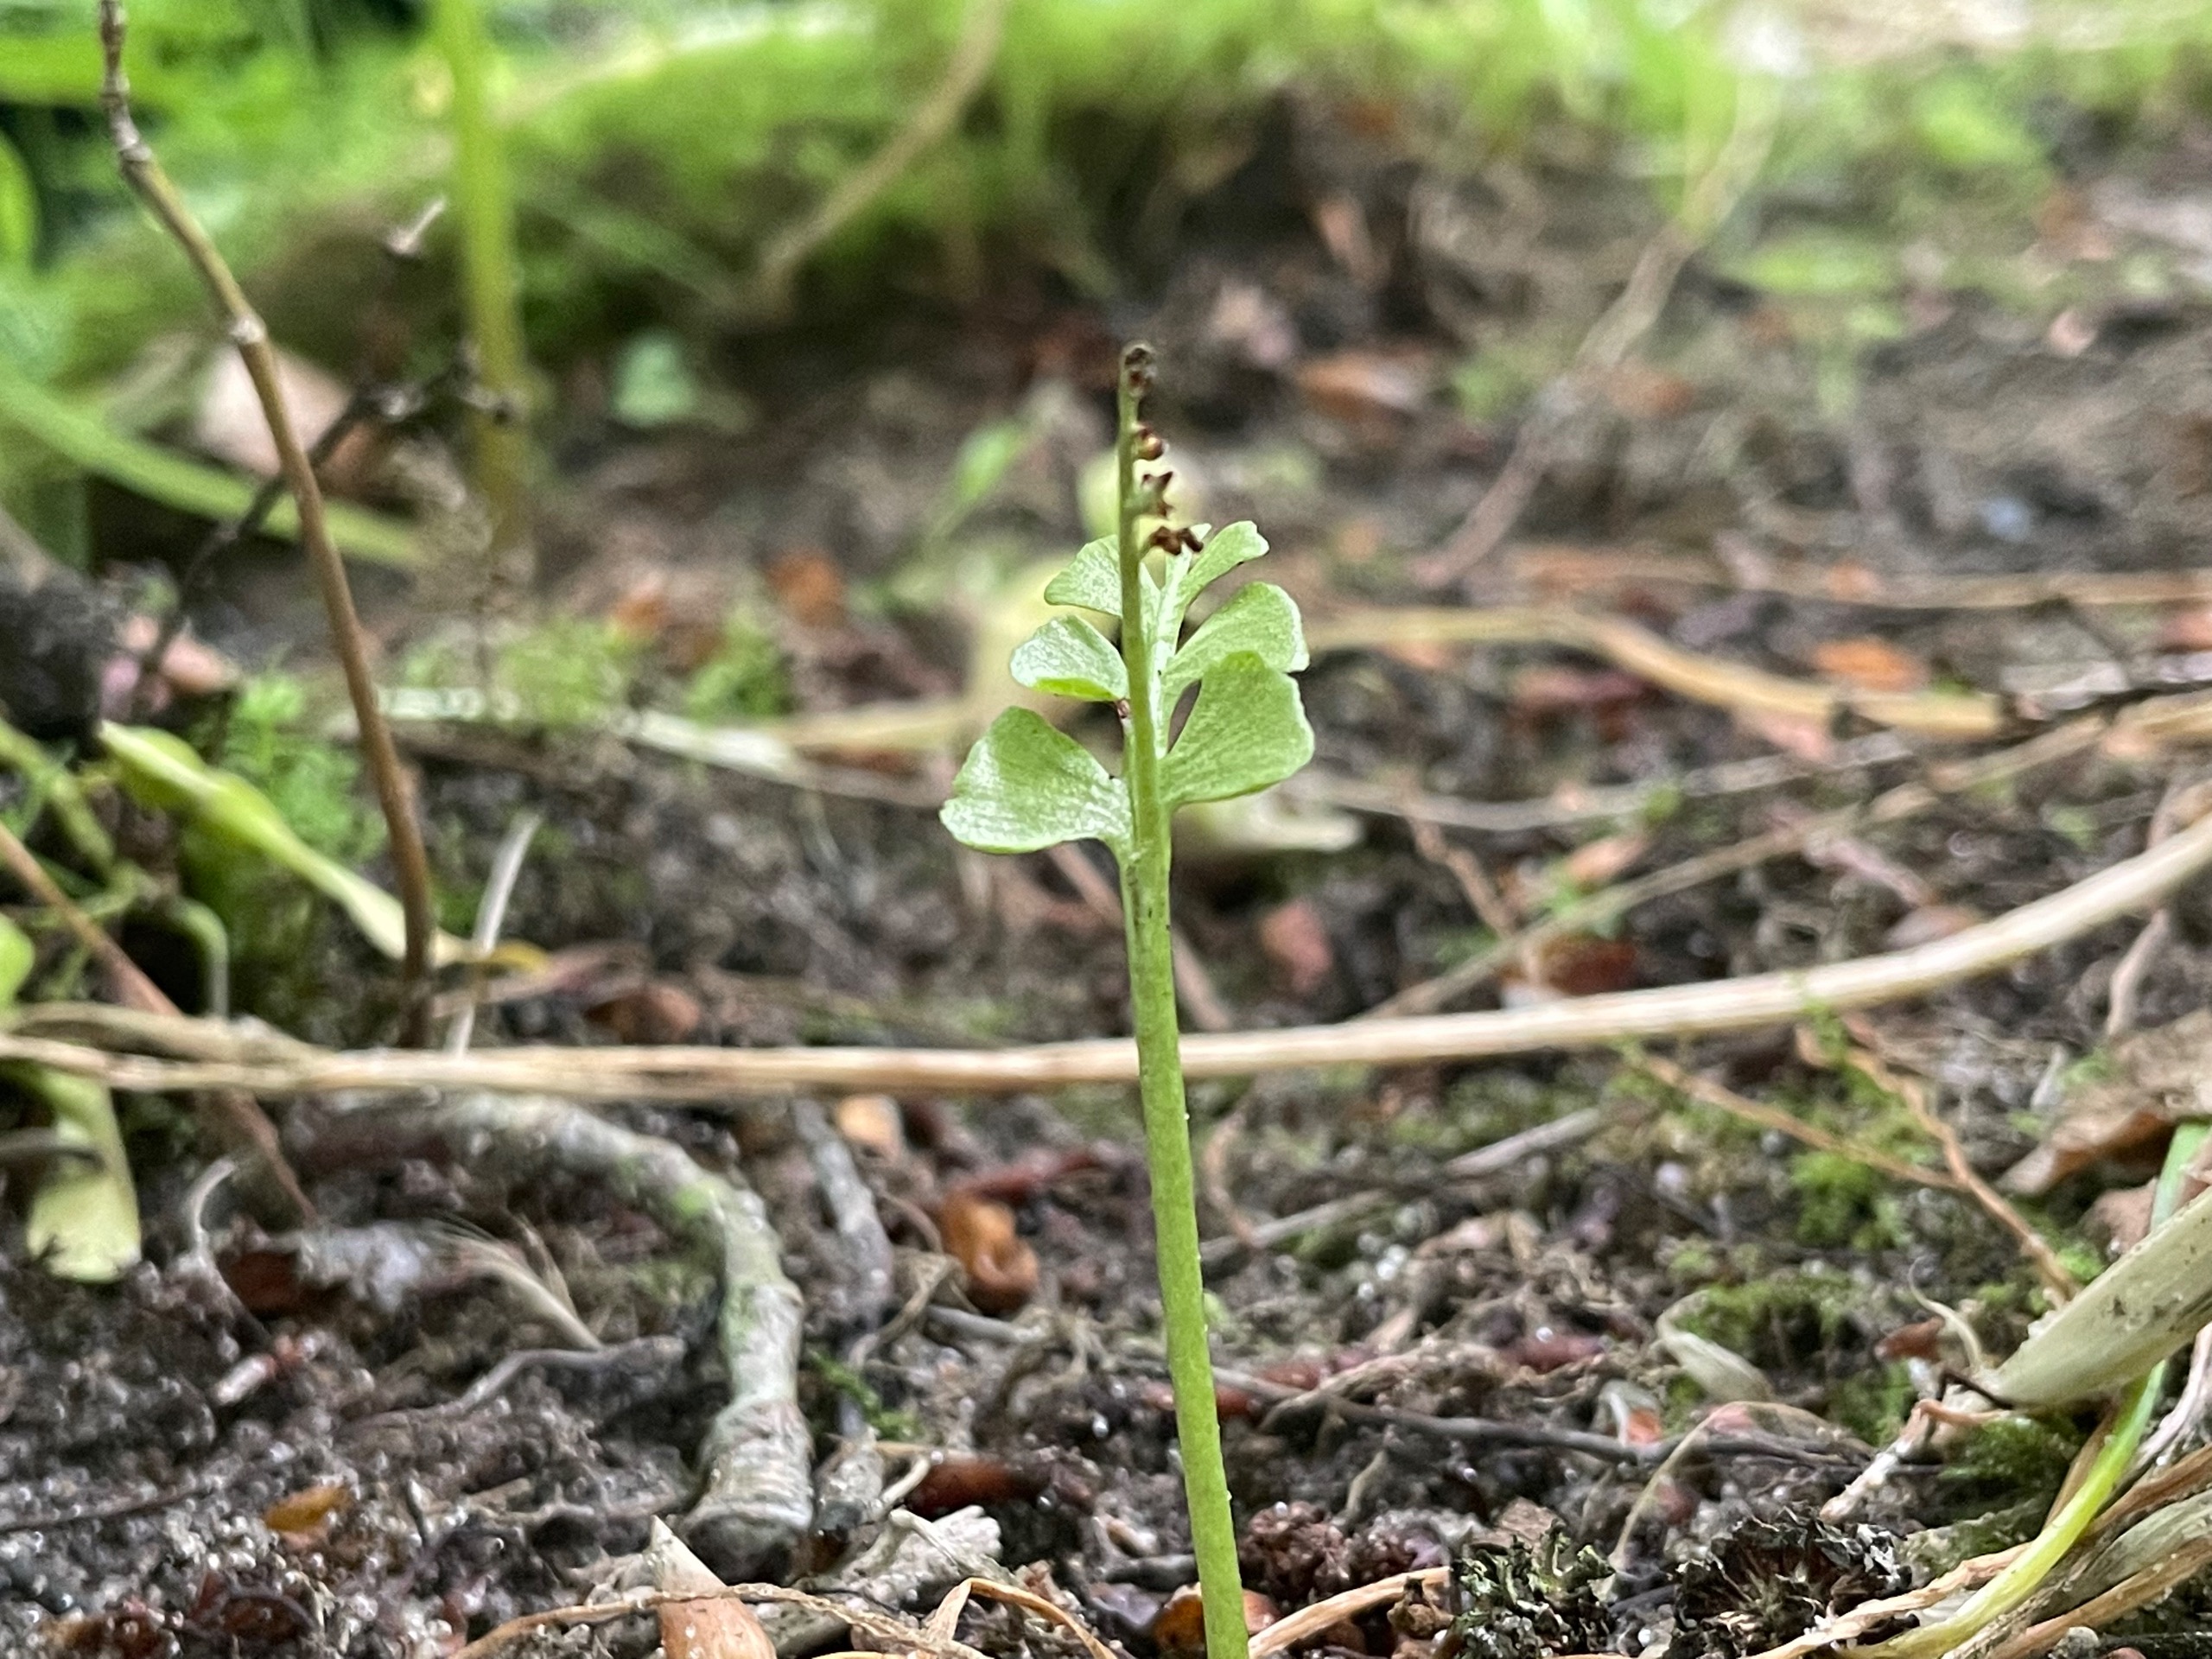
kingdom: Plantae
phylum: Tracheophyta
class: Polypodiopsida
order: Ophioglossales
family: Ophioglossaceae
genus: Botrychium
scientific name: Botrychium lunaria
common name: Almindelig månerude
